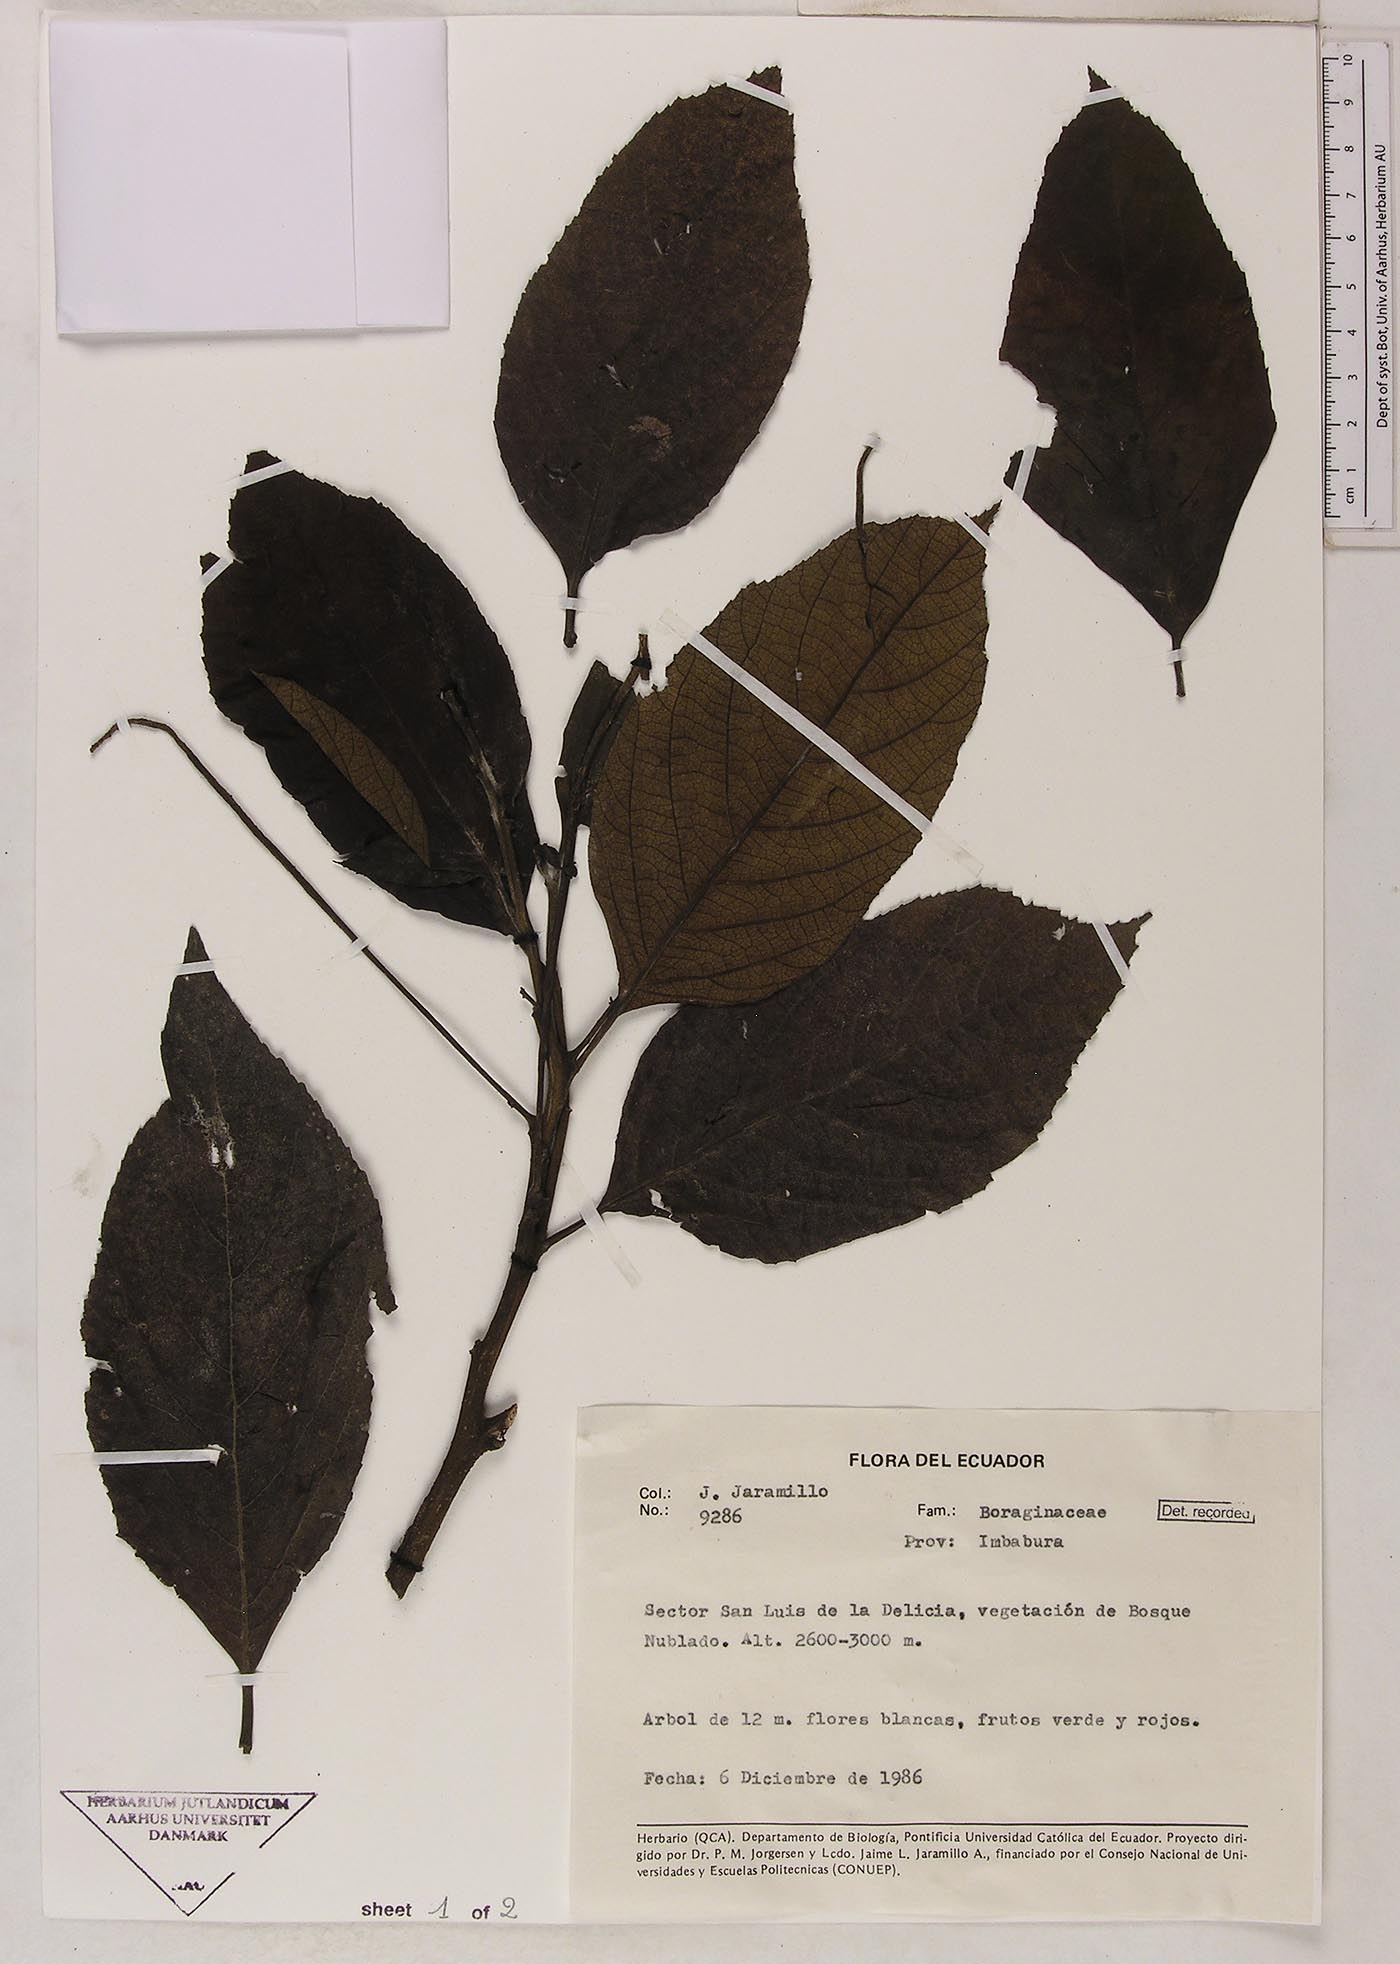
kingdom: Plantae
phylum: Tracheophyta
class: Magnoliopsida
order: Boraginales
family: Cordiaceae
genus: Varronia
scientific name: Varronia
